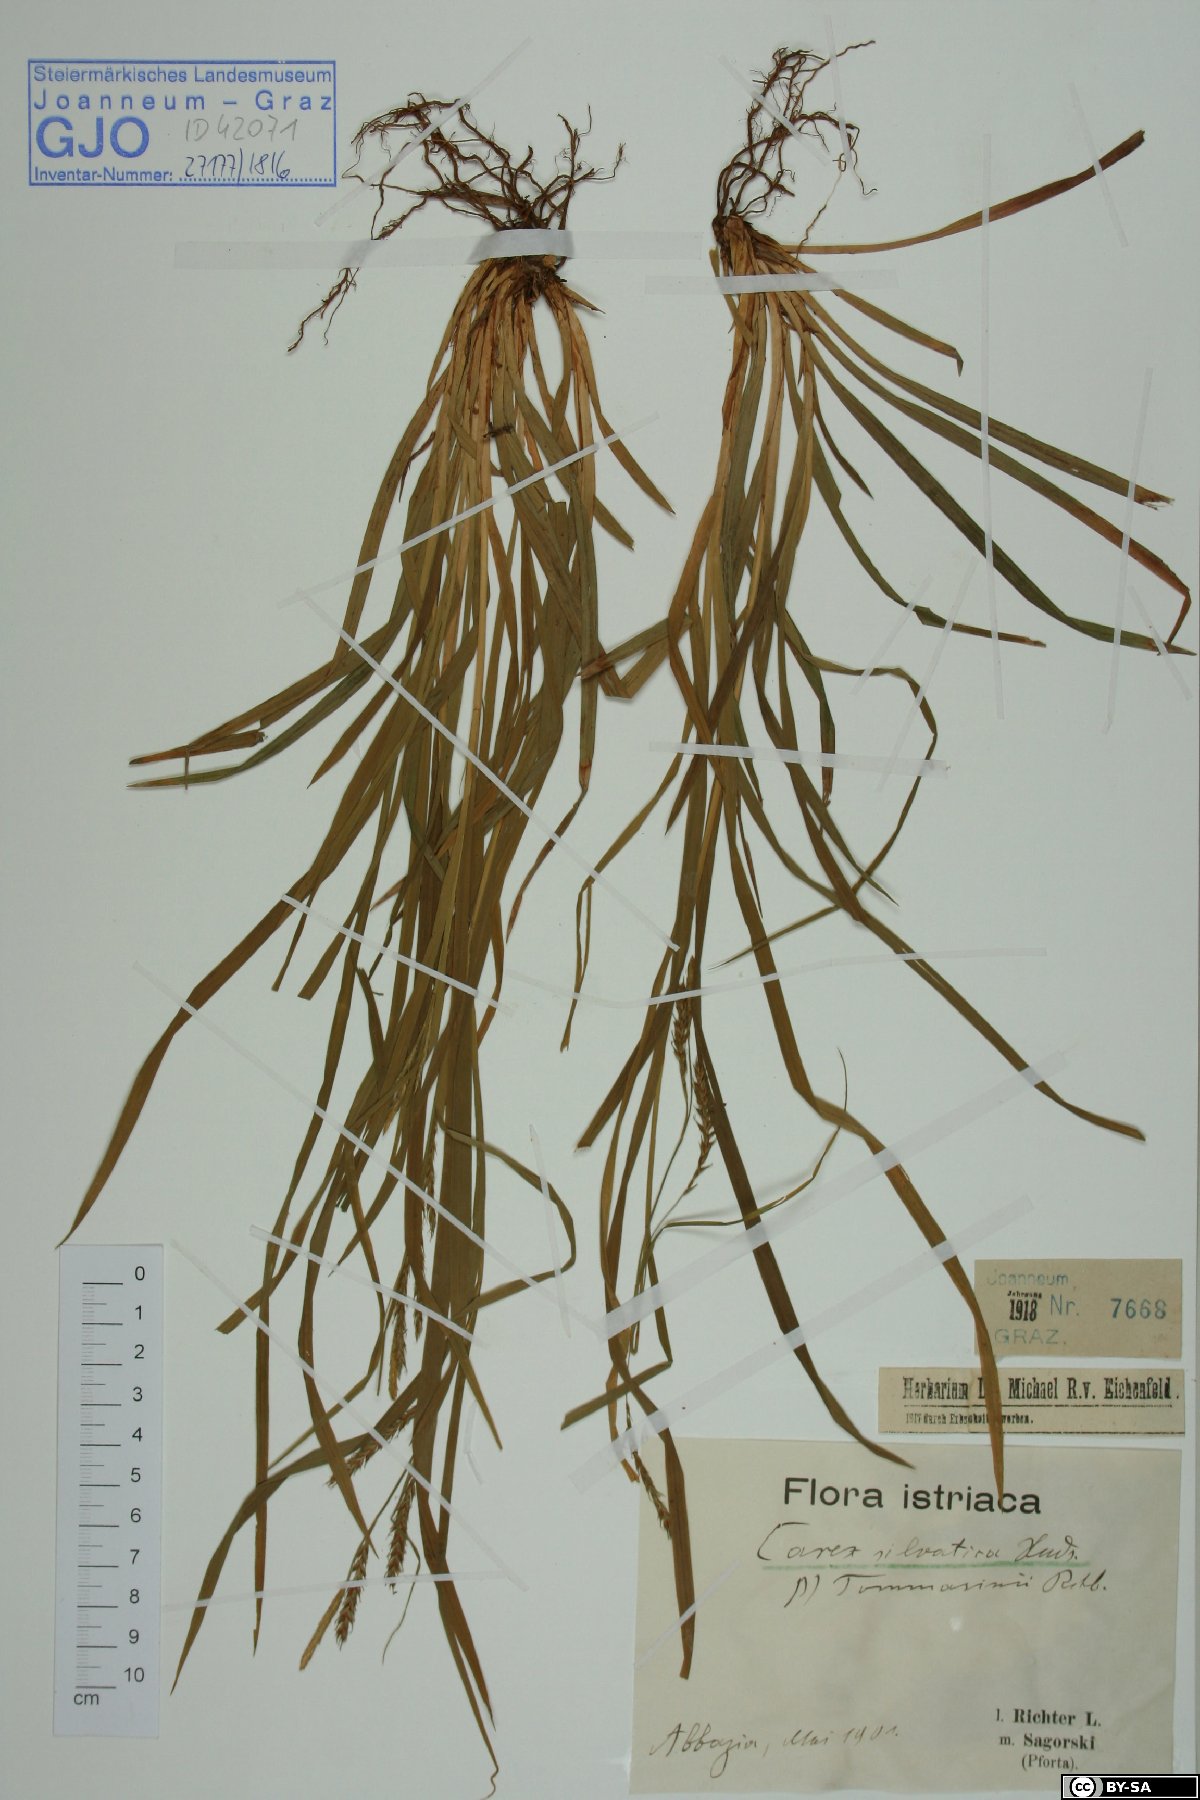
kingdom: Plantae
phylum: Tracheophyta
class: Liliopsida
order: Poales
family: Cyperaceae
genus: Carex
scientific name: Carex sylvatica
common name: Wood-sedge
